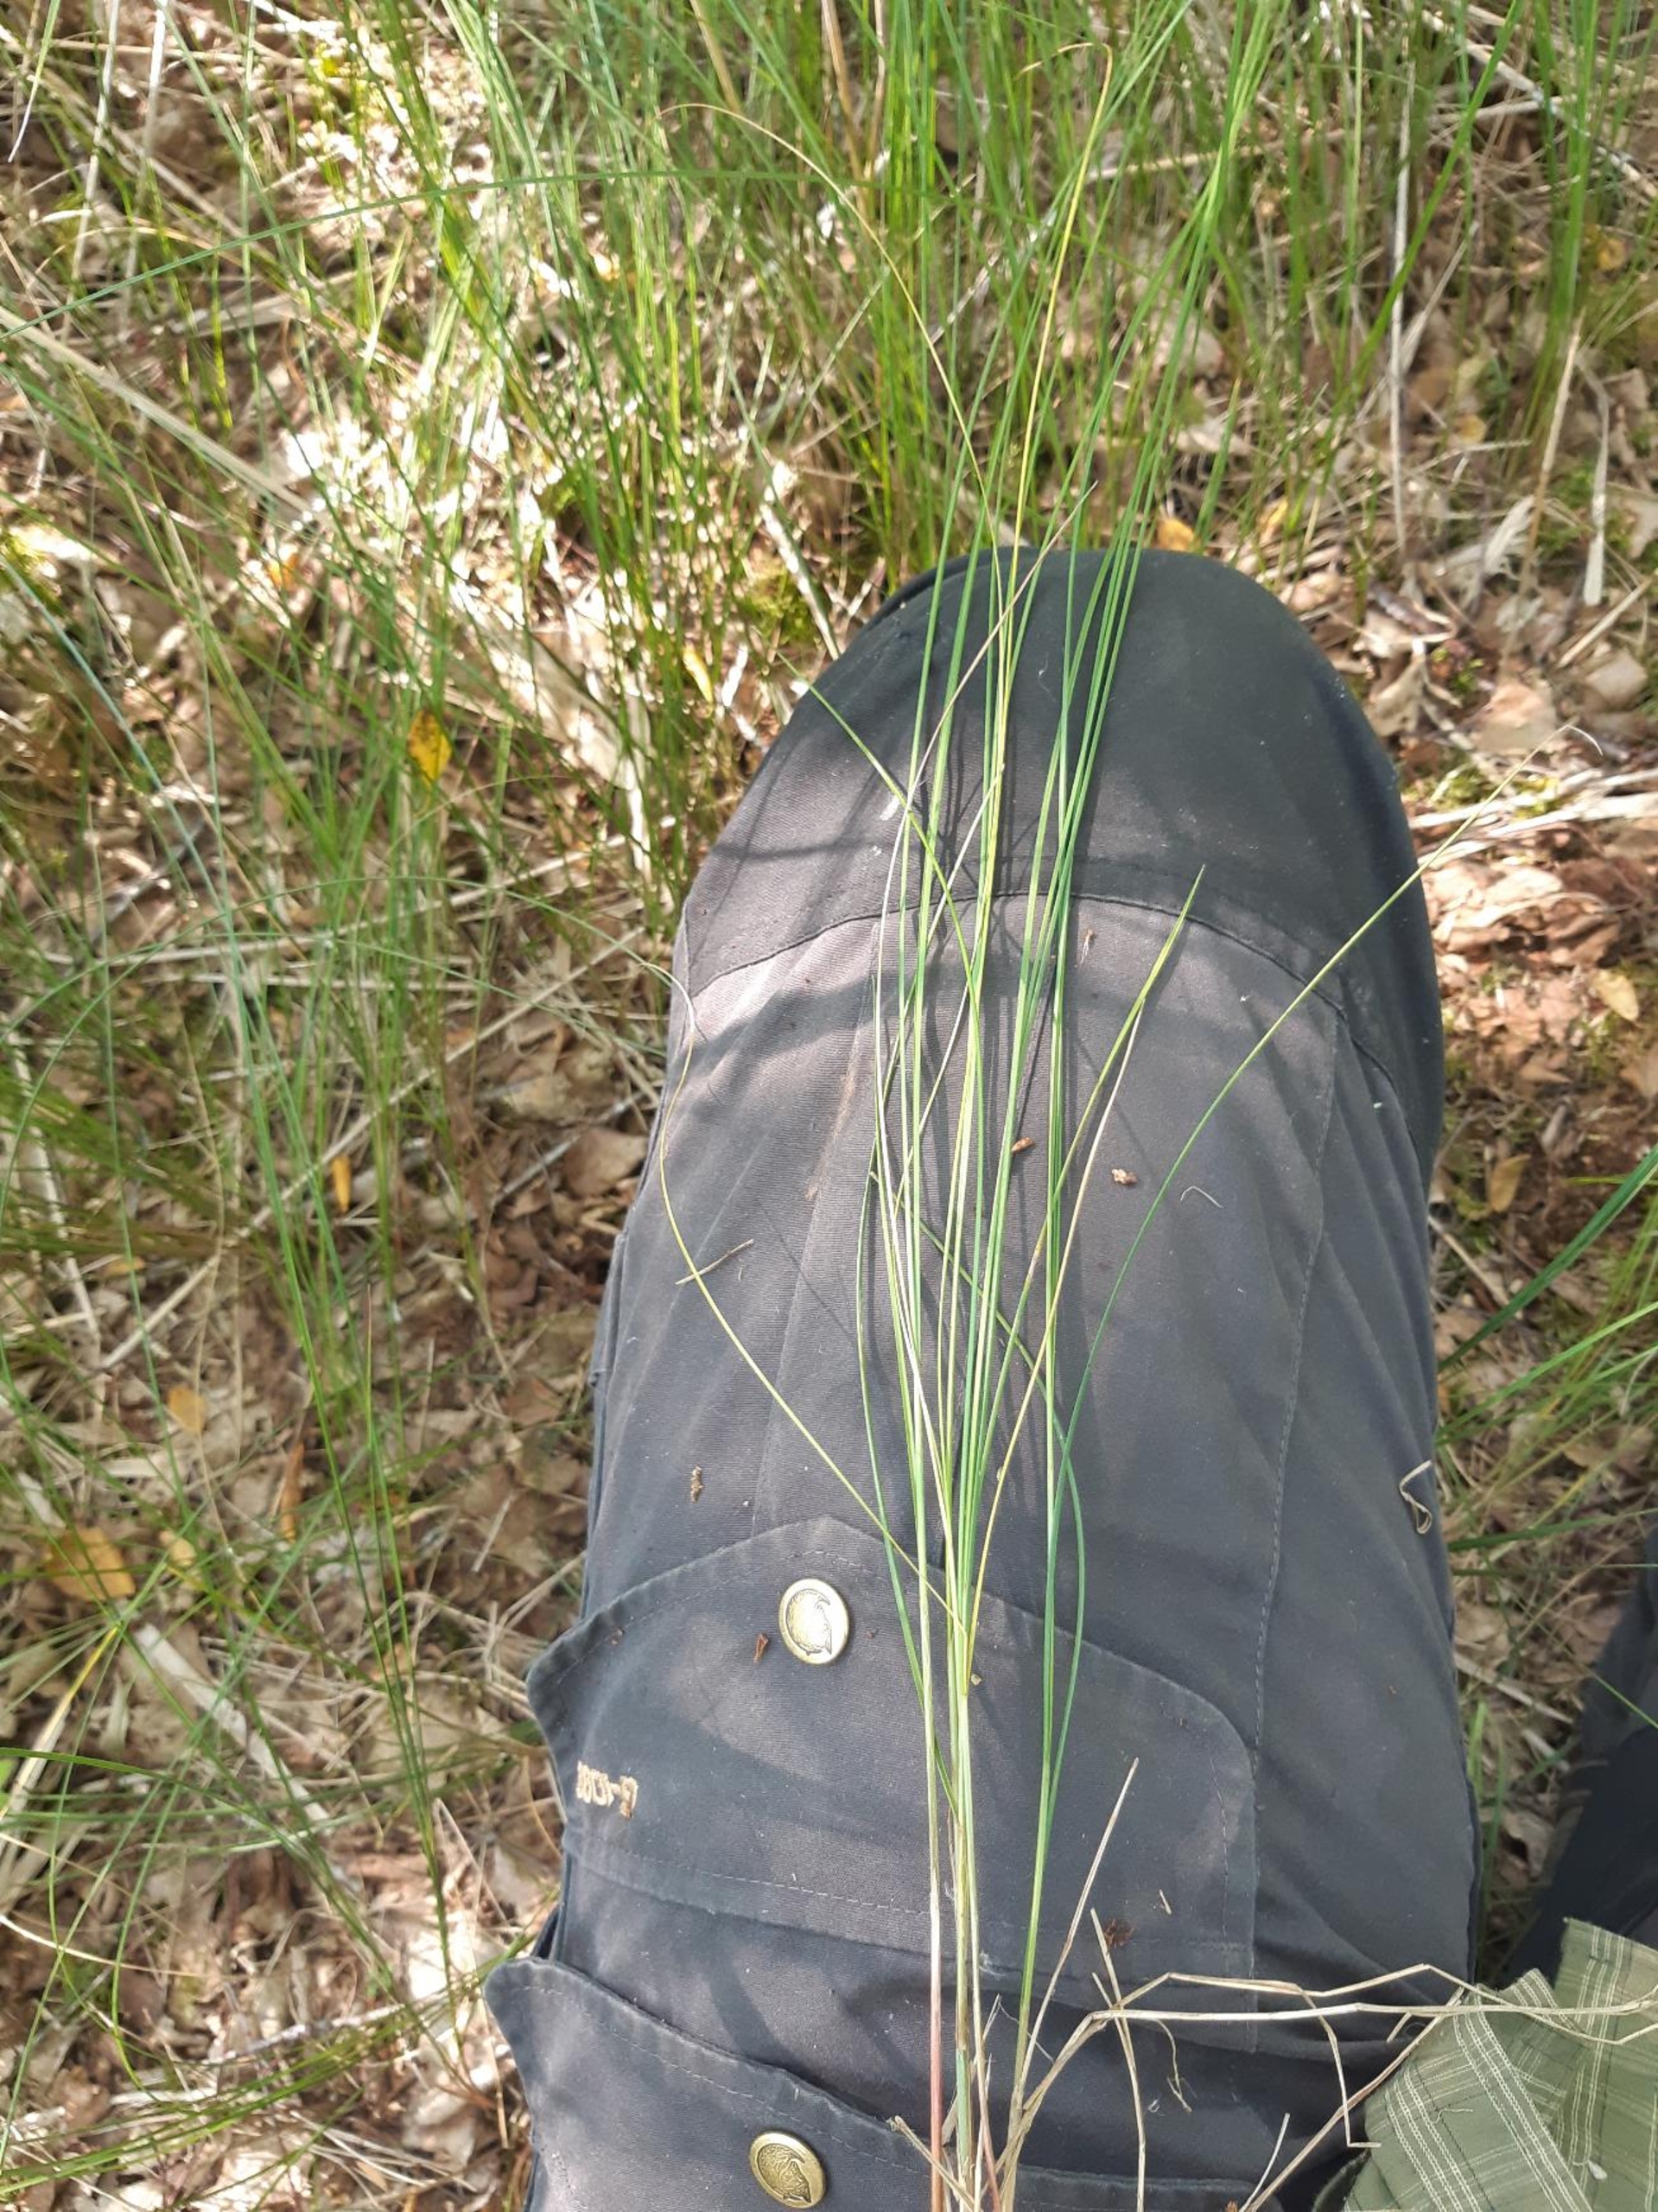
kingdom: Plantae
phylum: Tracheophyta
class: Liliopsida
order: Poales
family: Cyperaceae
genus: Carex
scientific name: Carex lasiocarpa
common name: Tråd-star
